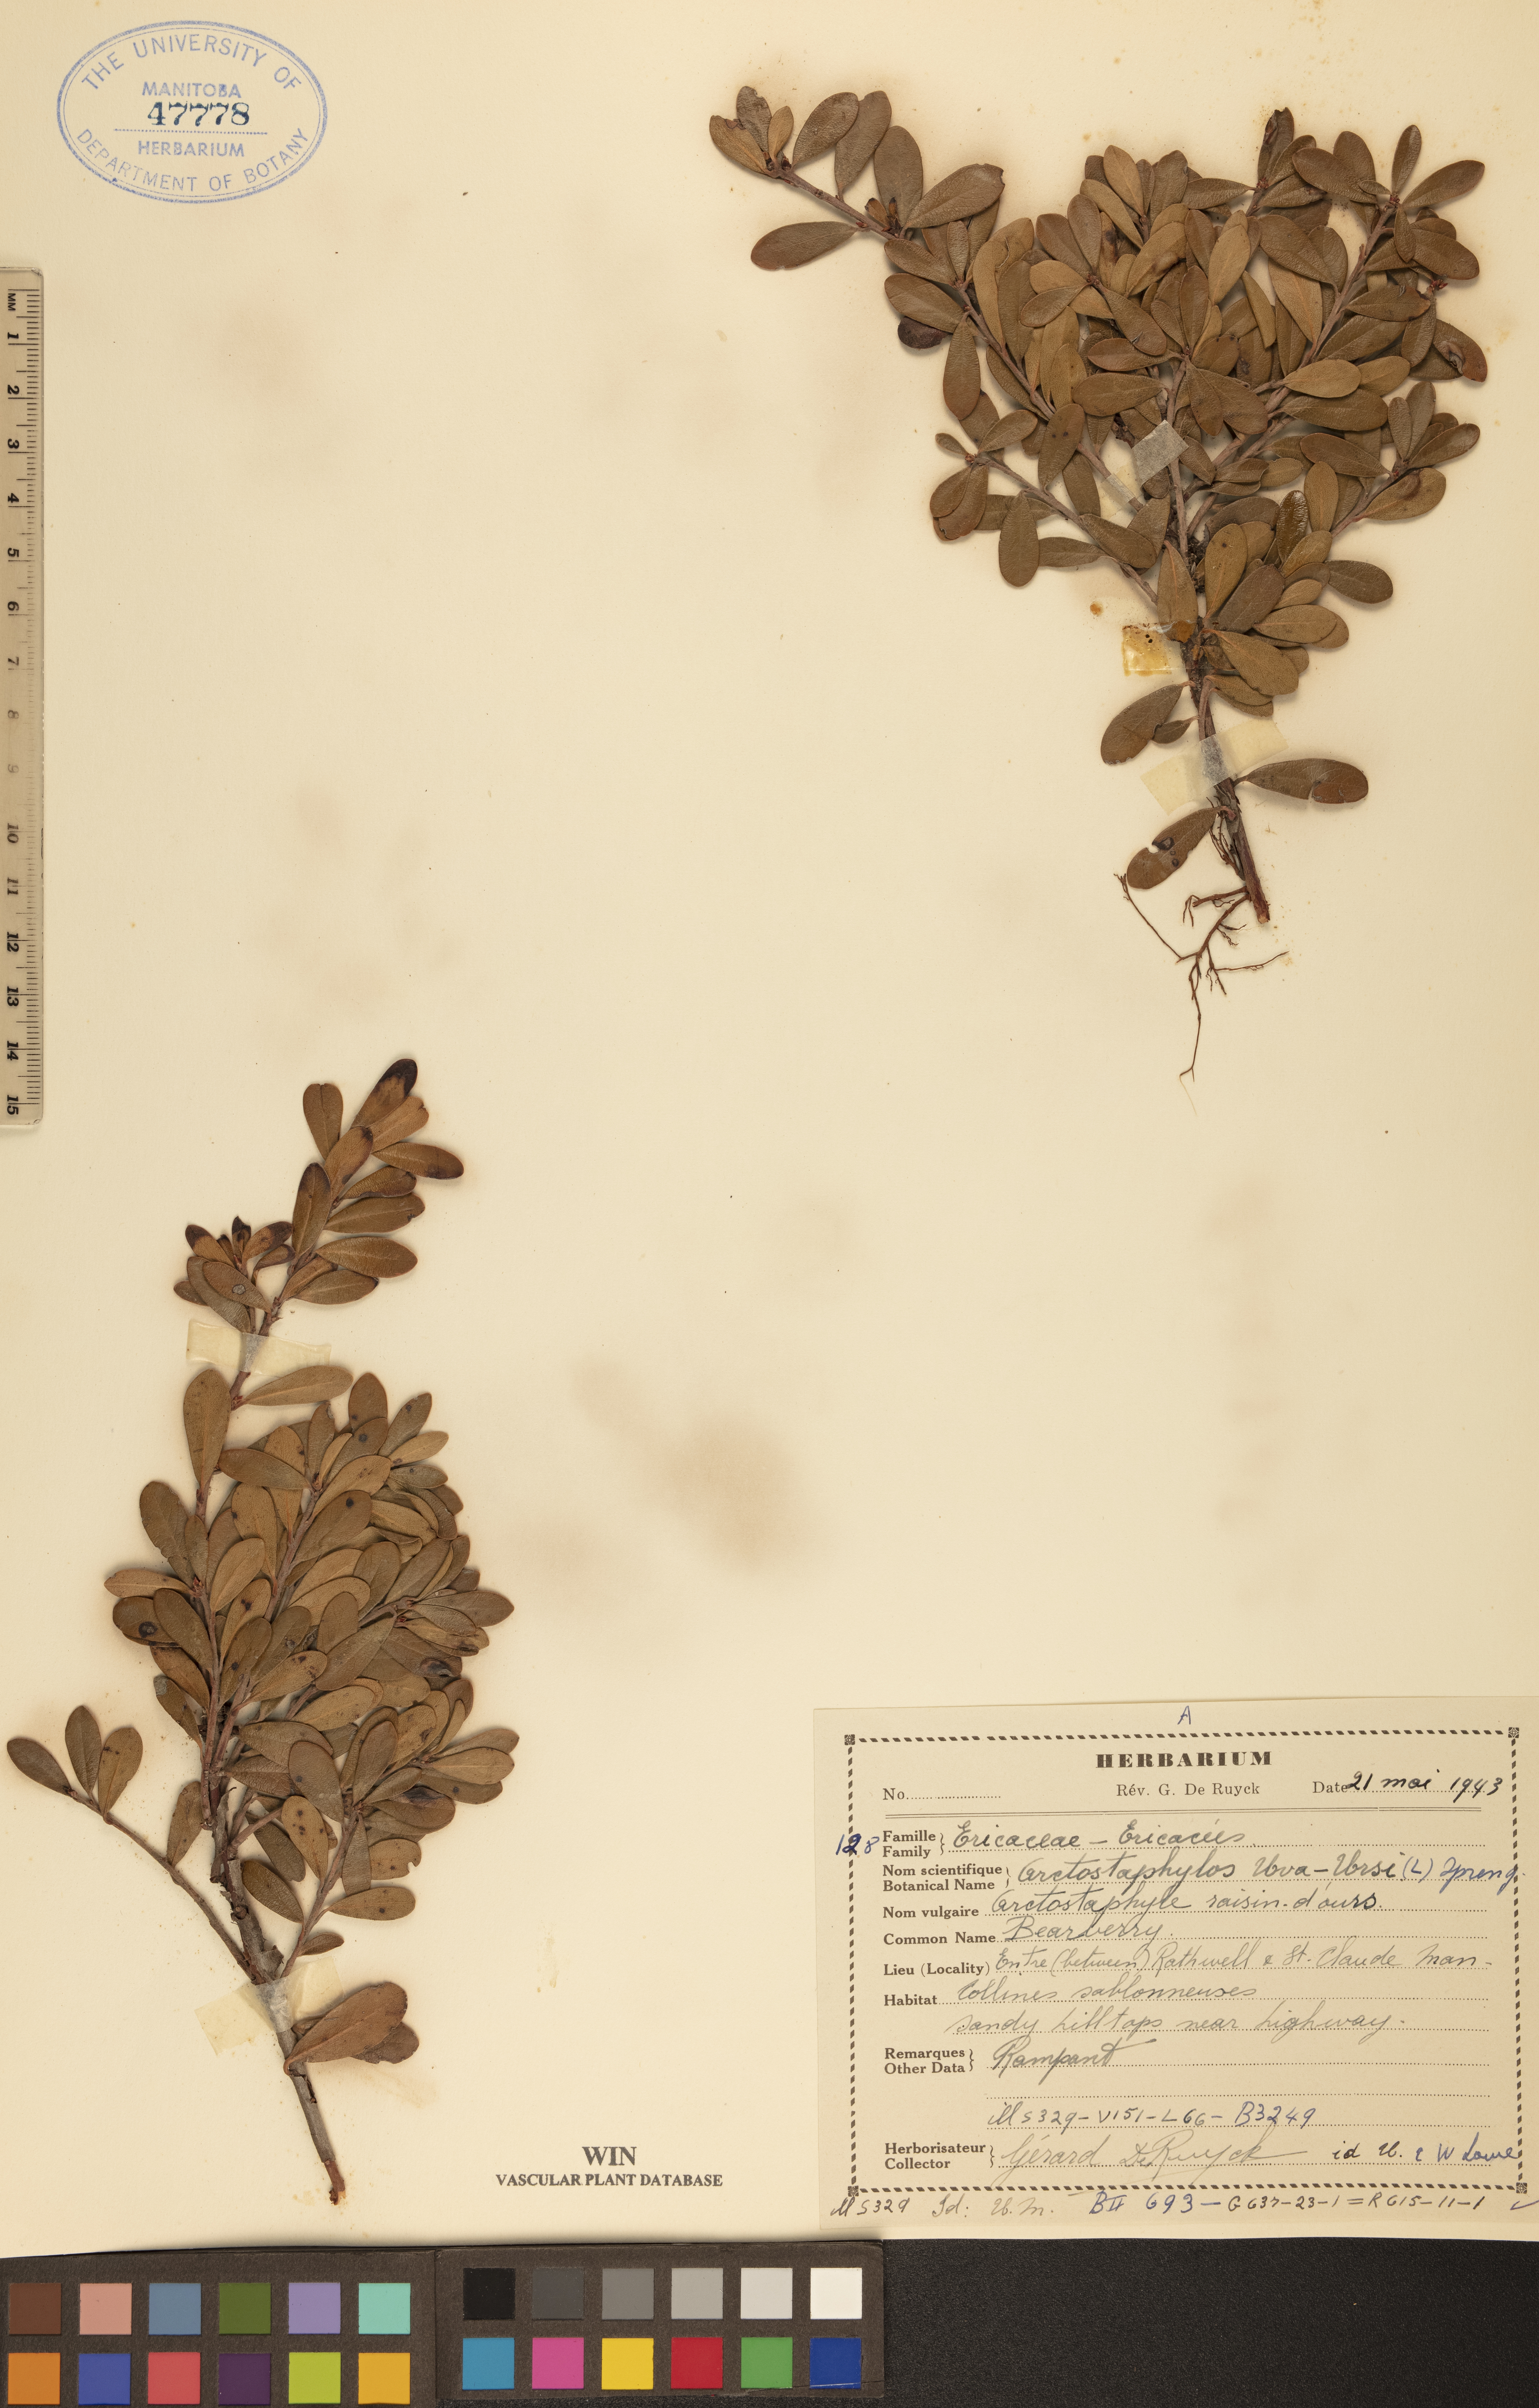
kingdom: Plantae
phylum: Tracheophyta
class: Magnoliopsida
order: Ericales
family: Ericaceae
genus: Arctostaphylos
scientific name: Arctostaphylos uva-ursi
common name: Bearberry
